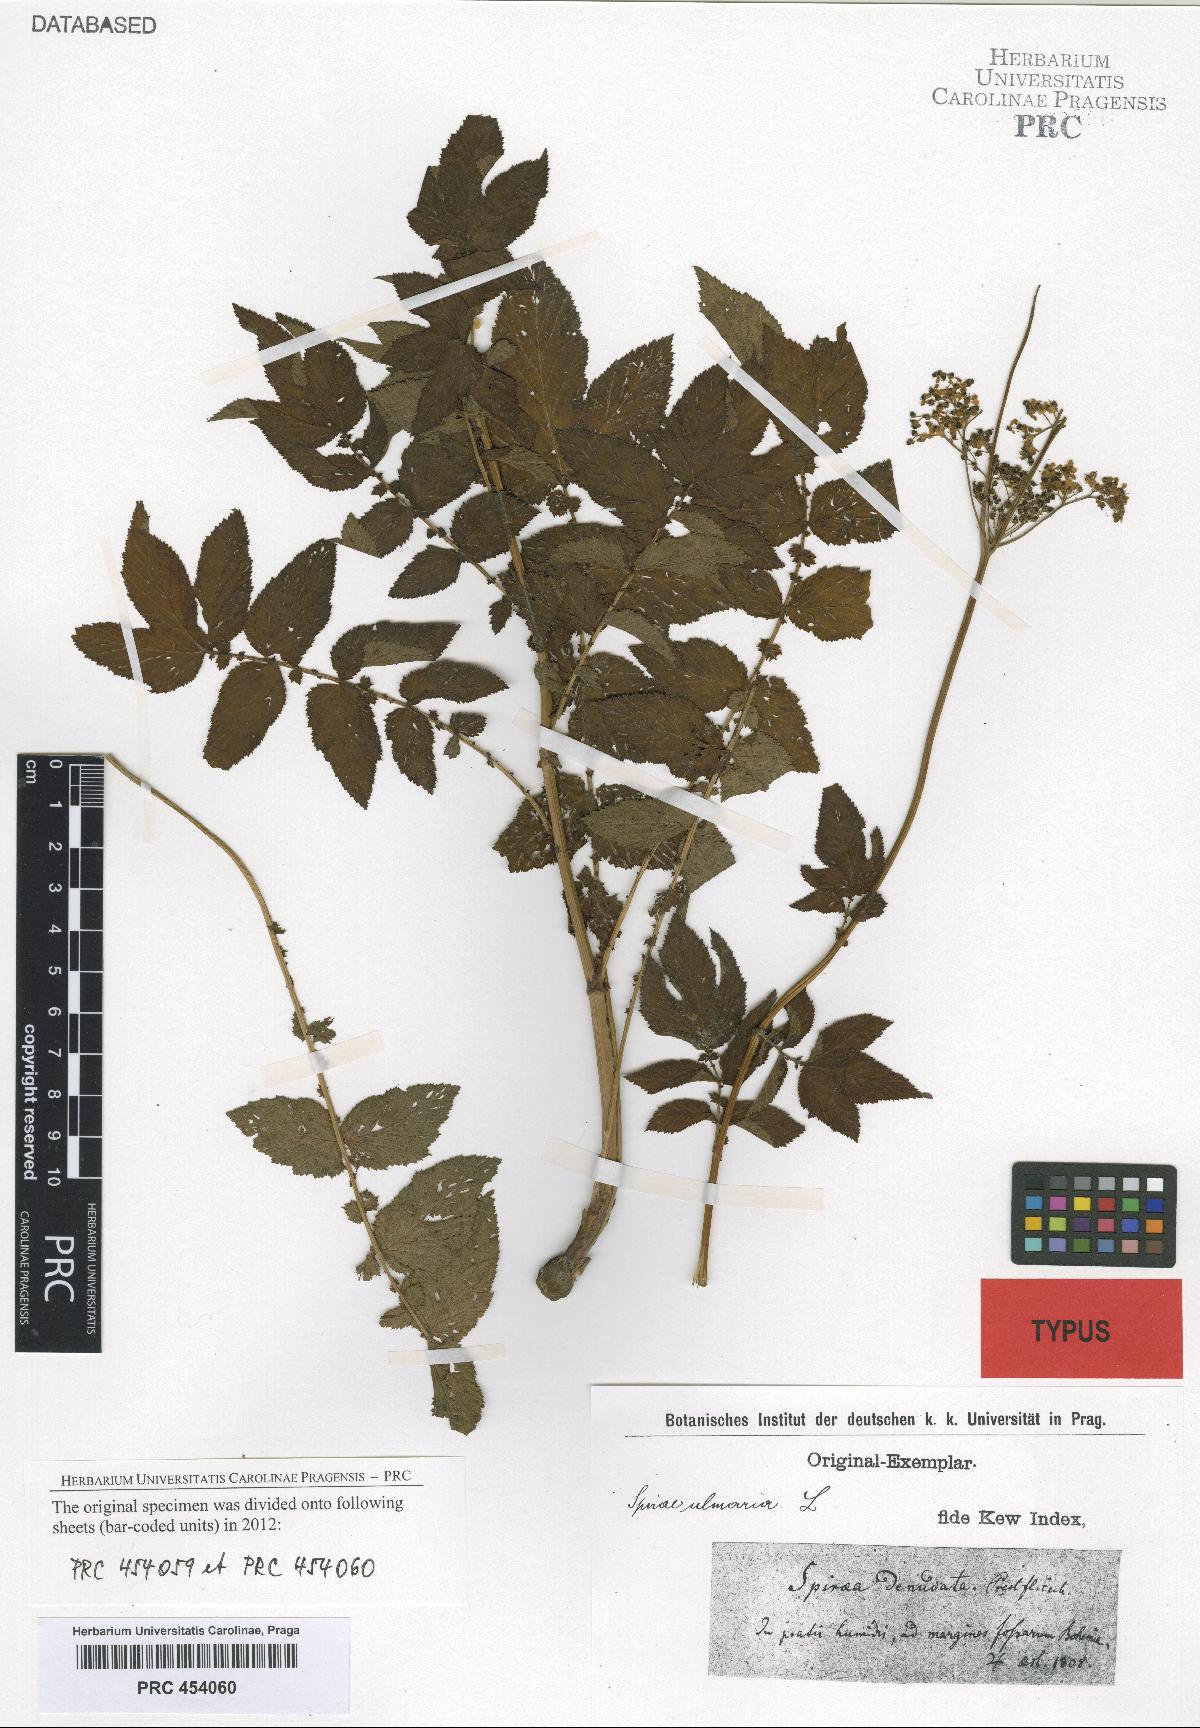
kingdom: Plantae
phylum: Tracheophyta
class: Magnoliopsida
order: Rosales
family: Rosaceae
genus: Filipendula
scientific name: Filipendula ulmaria
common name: Meadowsweet
